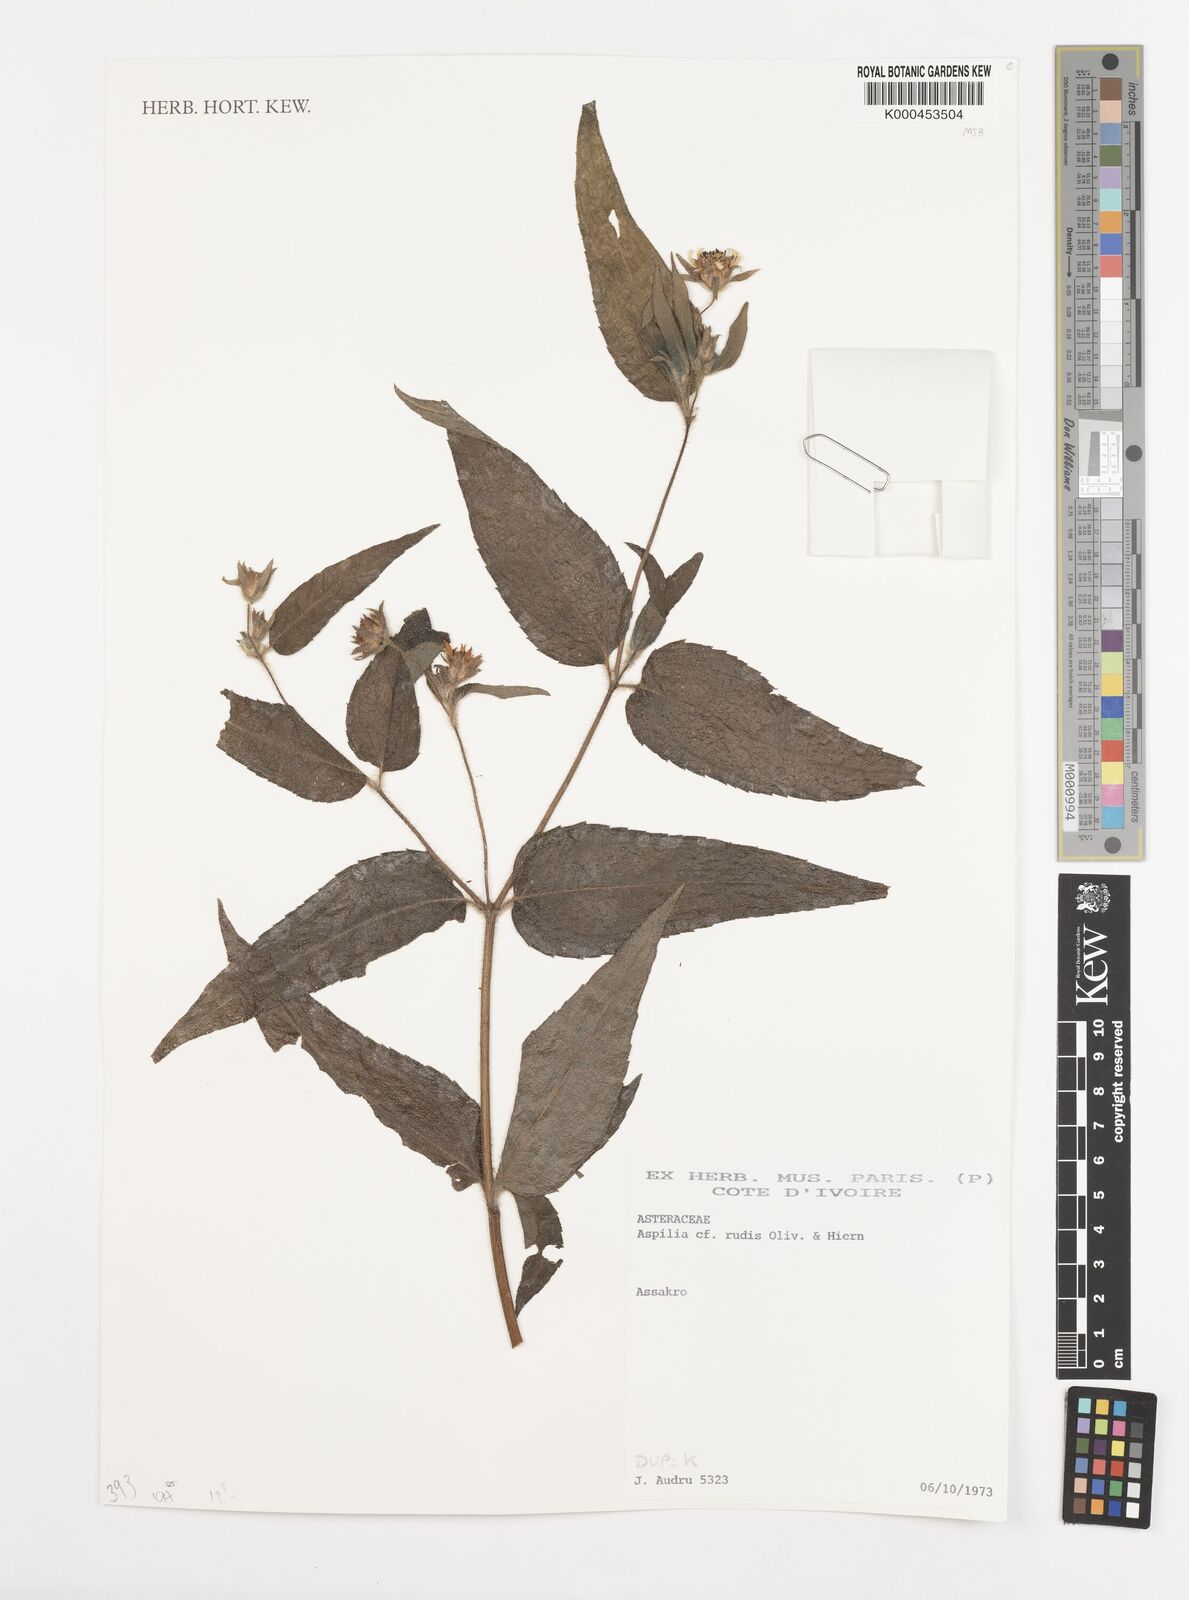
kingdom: Plantae
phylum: Tracheophyta
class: Magnoliopsida
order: Asterales
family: Asteraceae
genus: Aspilia
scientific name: Aspilia rudis
